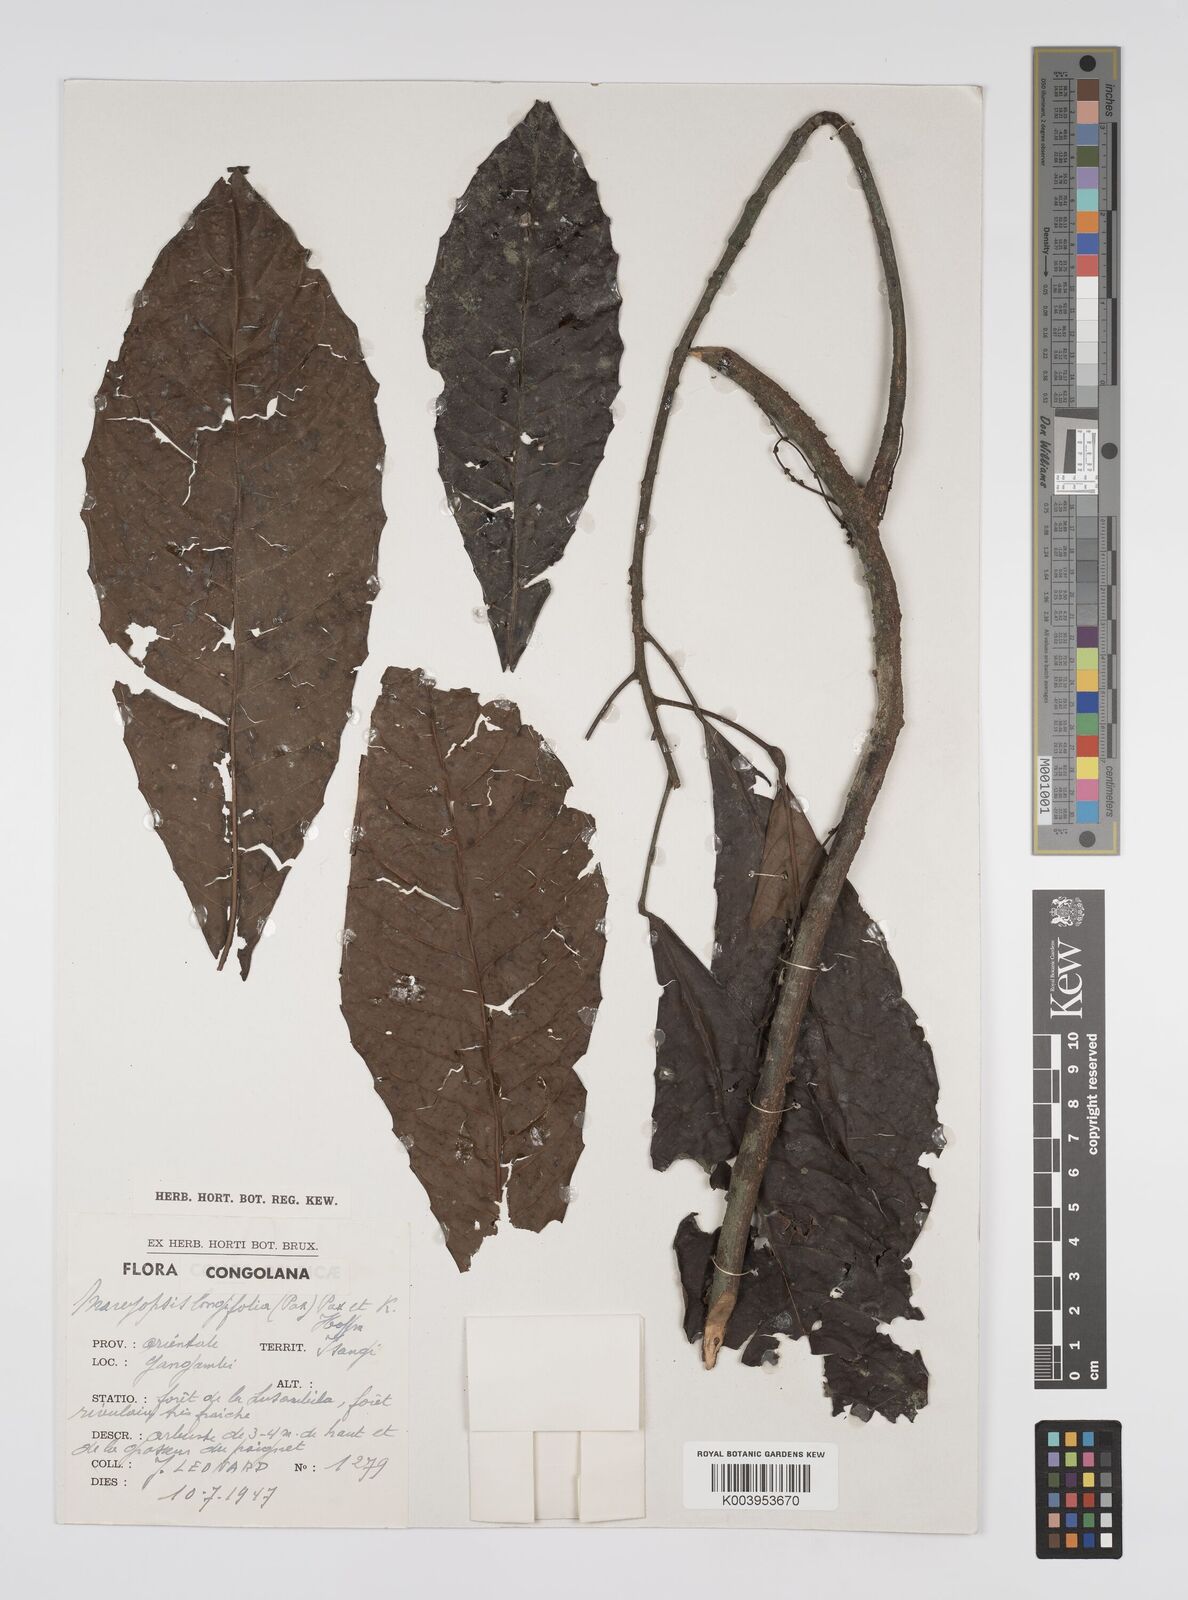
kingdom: Plantae
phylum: Tracheophyta
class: Magnoliopsida
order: Malpighiales
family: Euphorbiaceae
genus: Mareyopsis
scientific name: Mareyopsis longifolia
